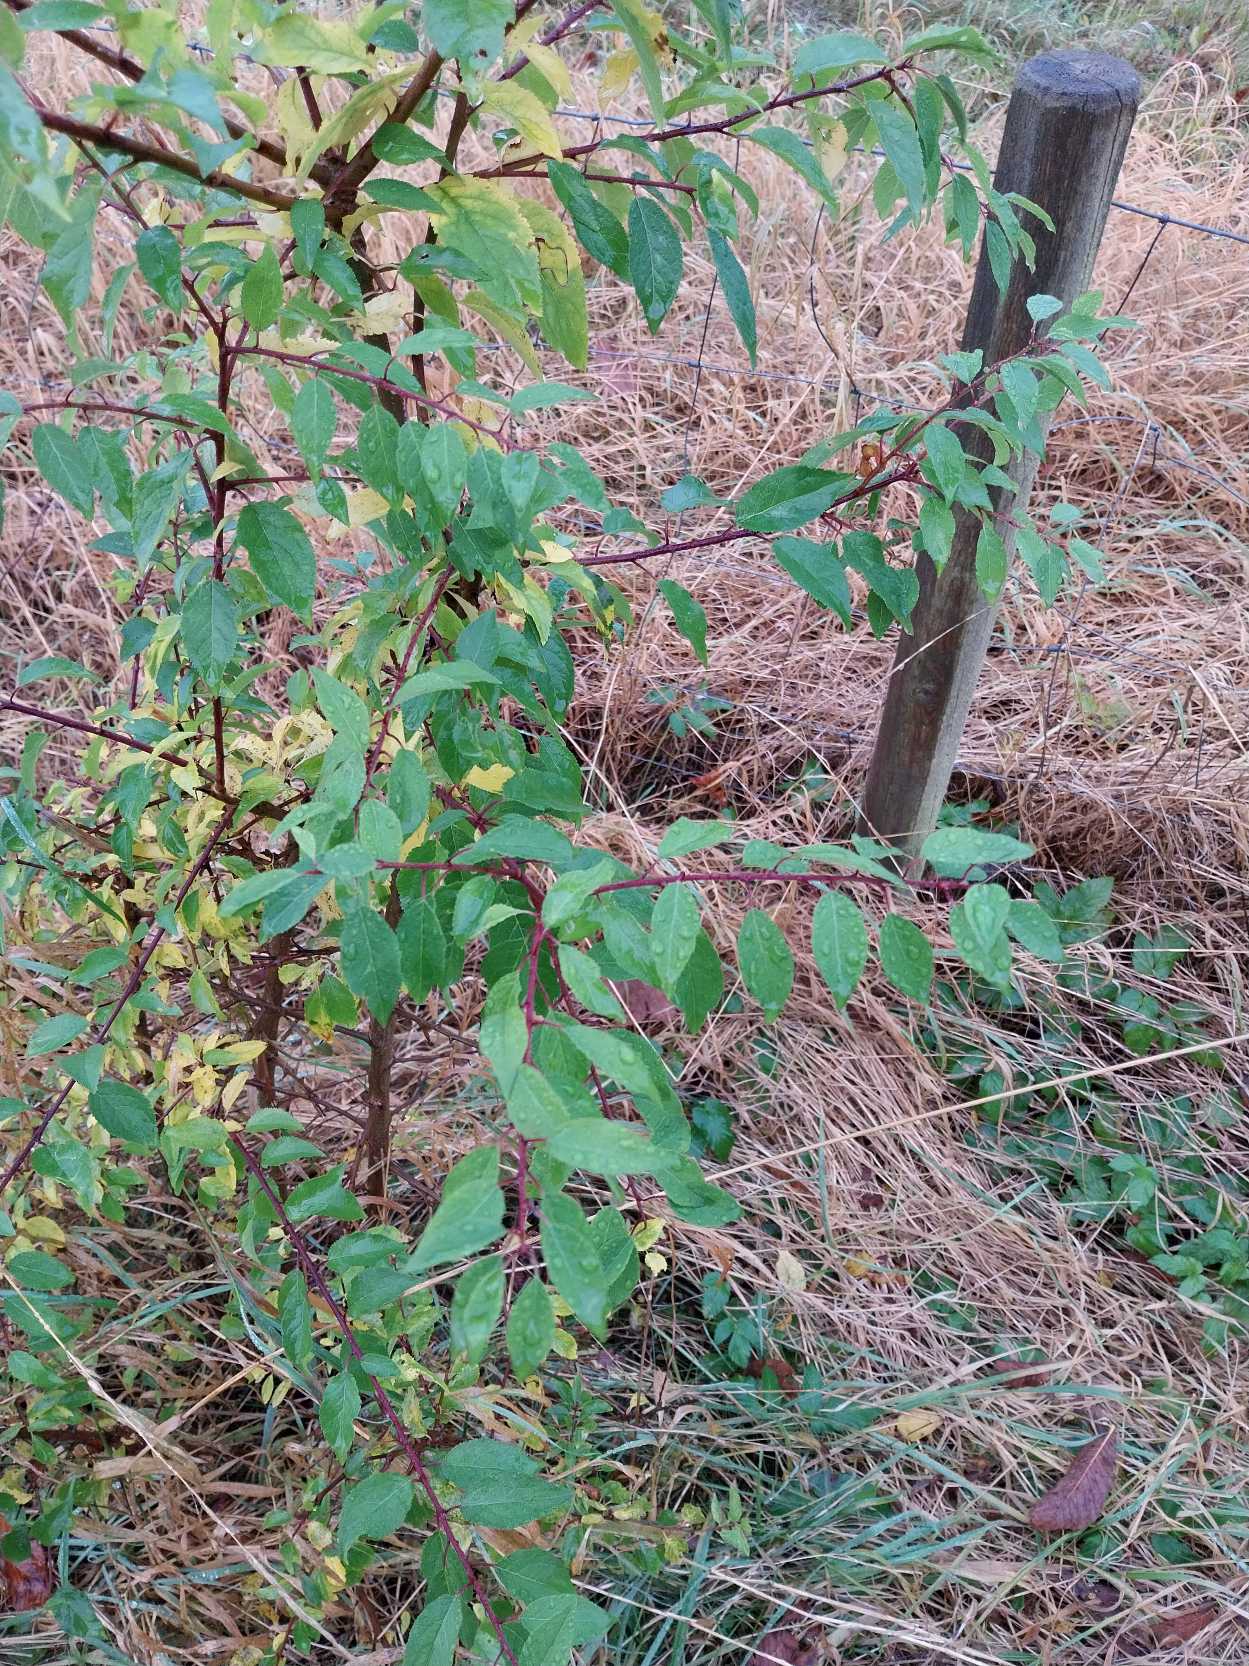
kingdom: Plantae
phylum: Tracheophyta
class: Magnoliopsida
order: Rosales
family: Rosaceae
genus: Prunus
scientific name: Prunus cerasifera
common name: Mirabel
